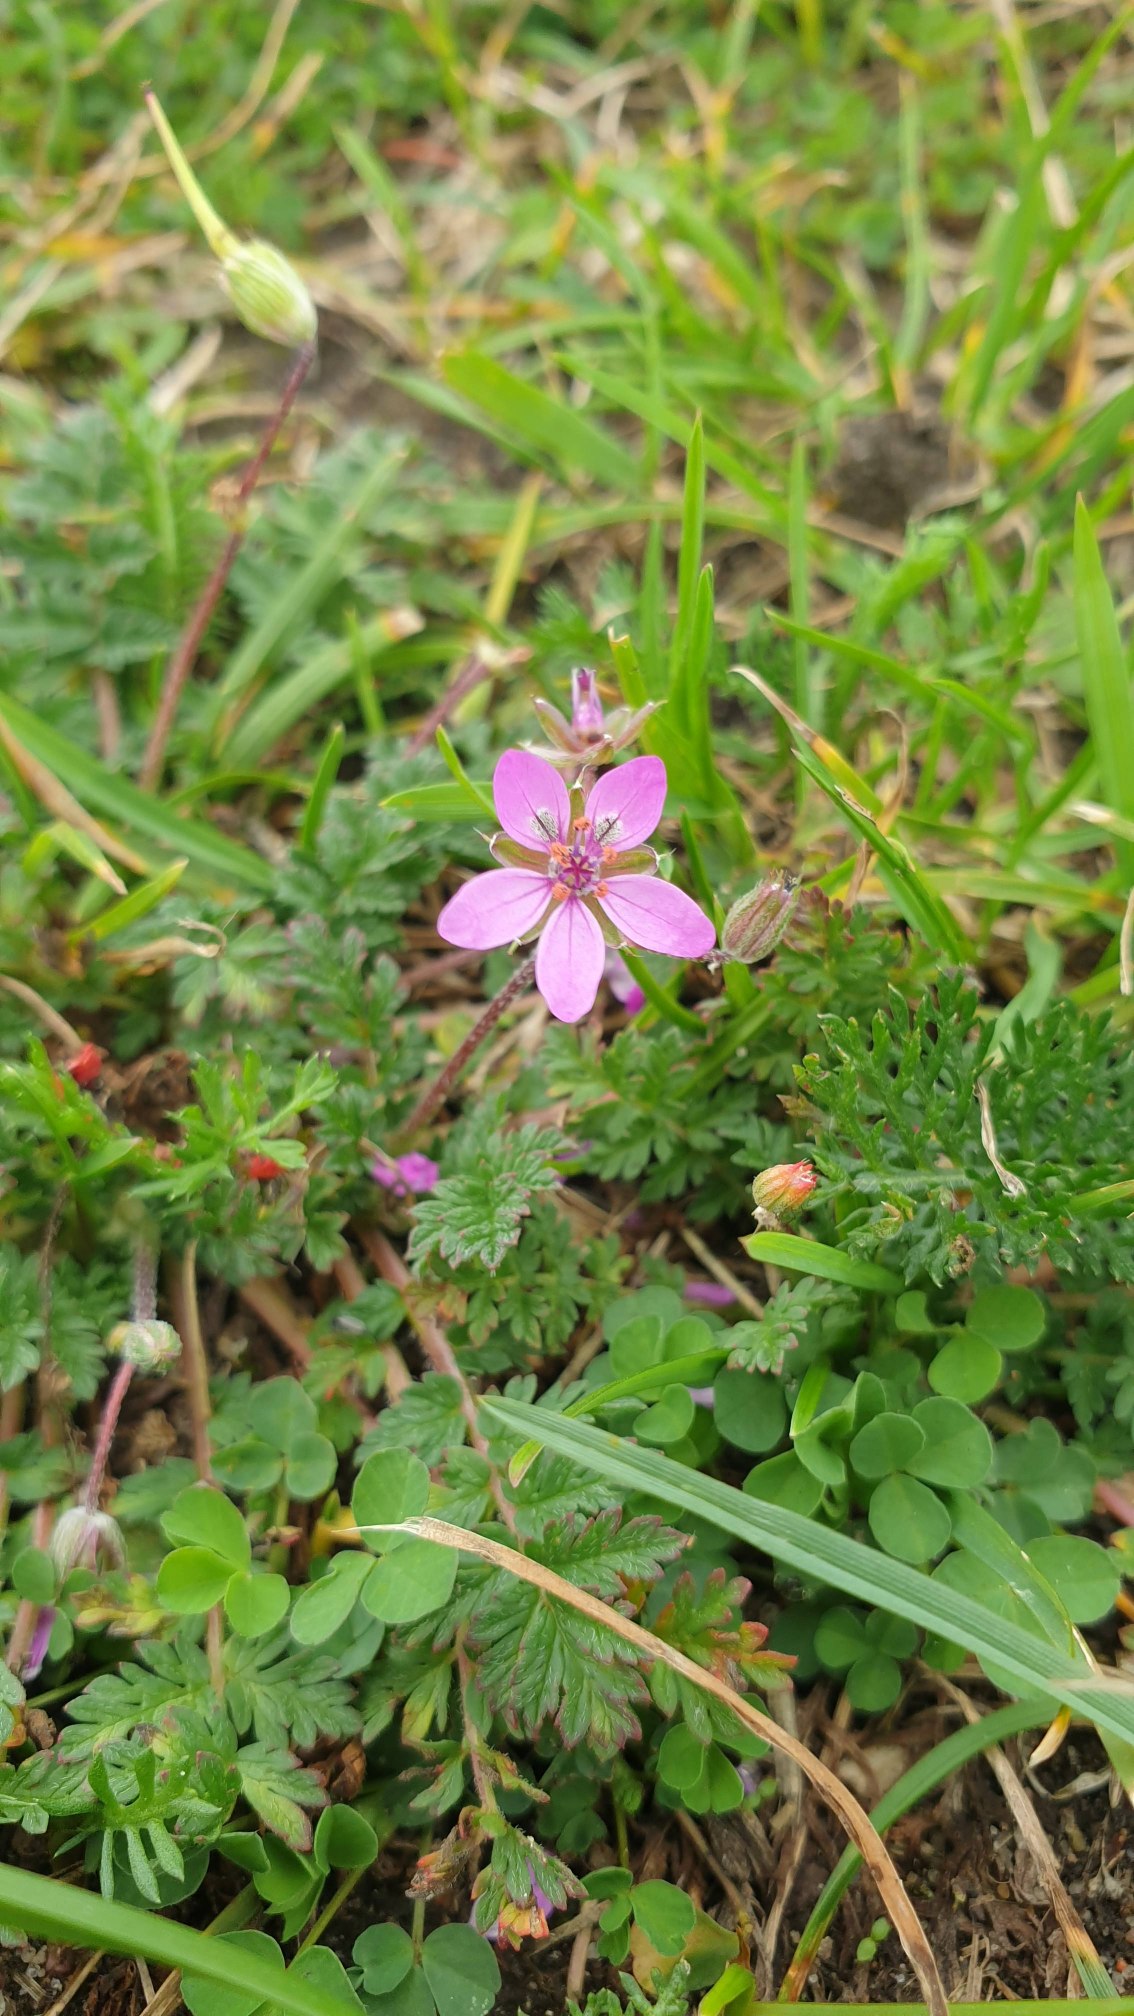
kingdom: Plantae
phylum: Tracheophyta
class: Magnoliopsida
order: Geraniales
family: Geraniaceae
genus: Erodium
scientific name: Erodium cicutarium
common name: Hejrenæb
